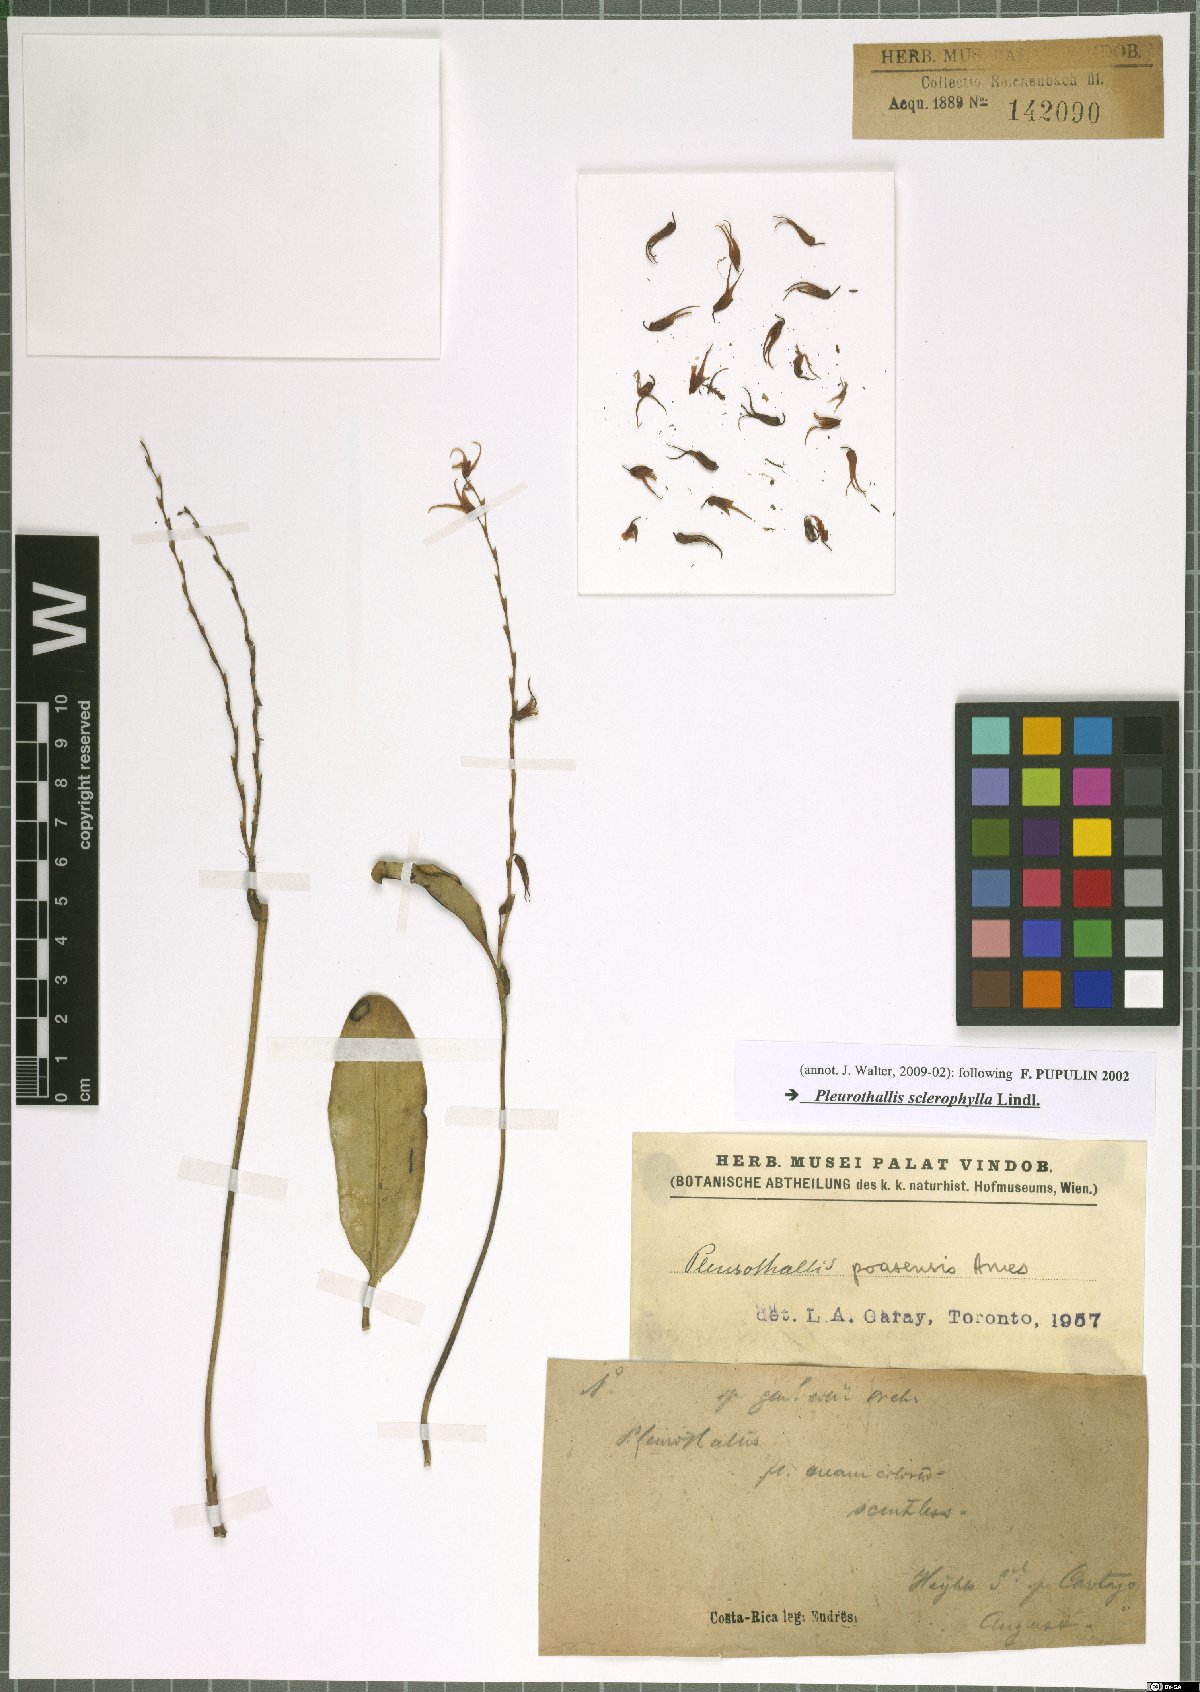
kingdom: Plantae
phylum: Tracheophyta
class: Liliopsida
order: Asparagales
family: Orchidaceae
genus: Stelis
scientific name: Stelis sclerophylla
